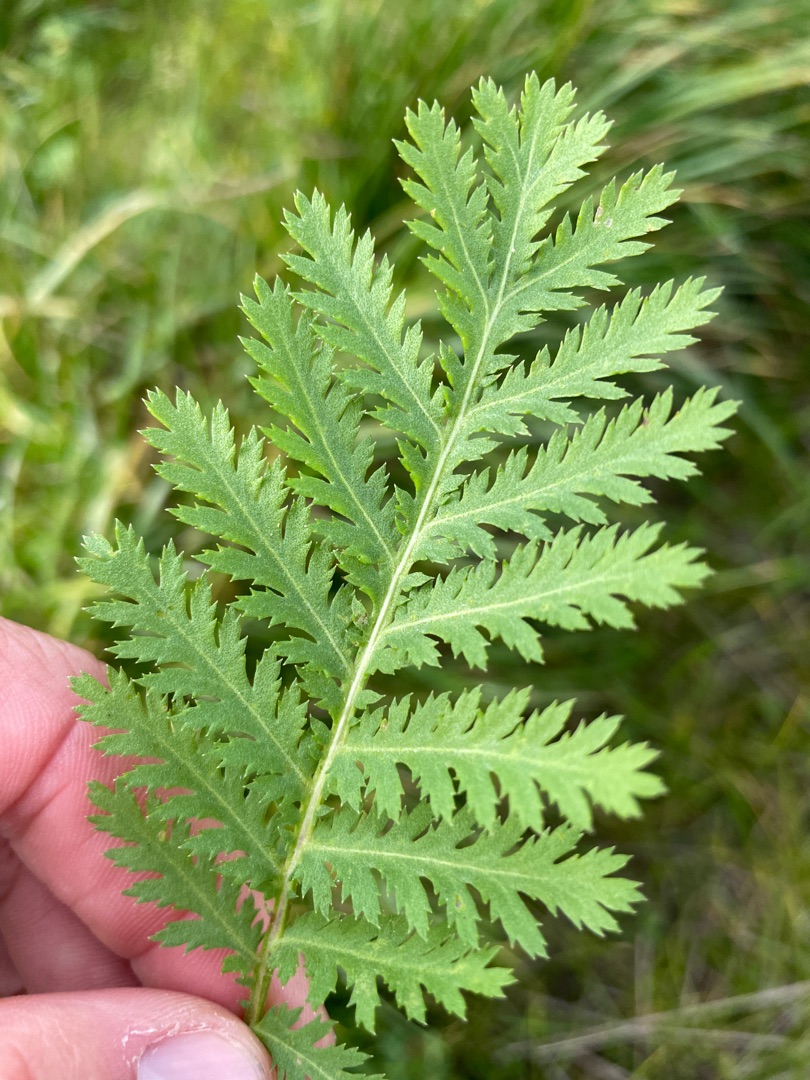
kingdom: Plantae
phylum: Tracheophyta
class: Magnoliopsida
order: Asterales
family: Asteraceae
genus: Tanacetum
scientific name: Tanacetum vulgare
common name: Rejnfan
